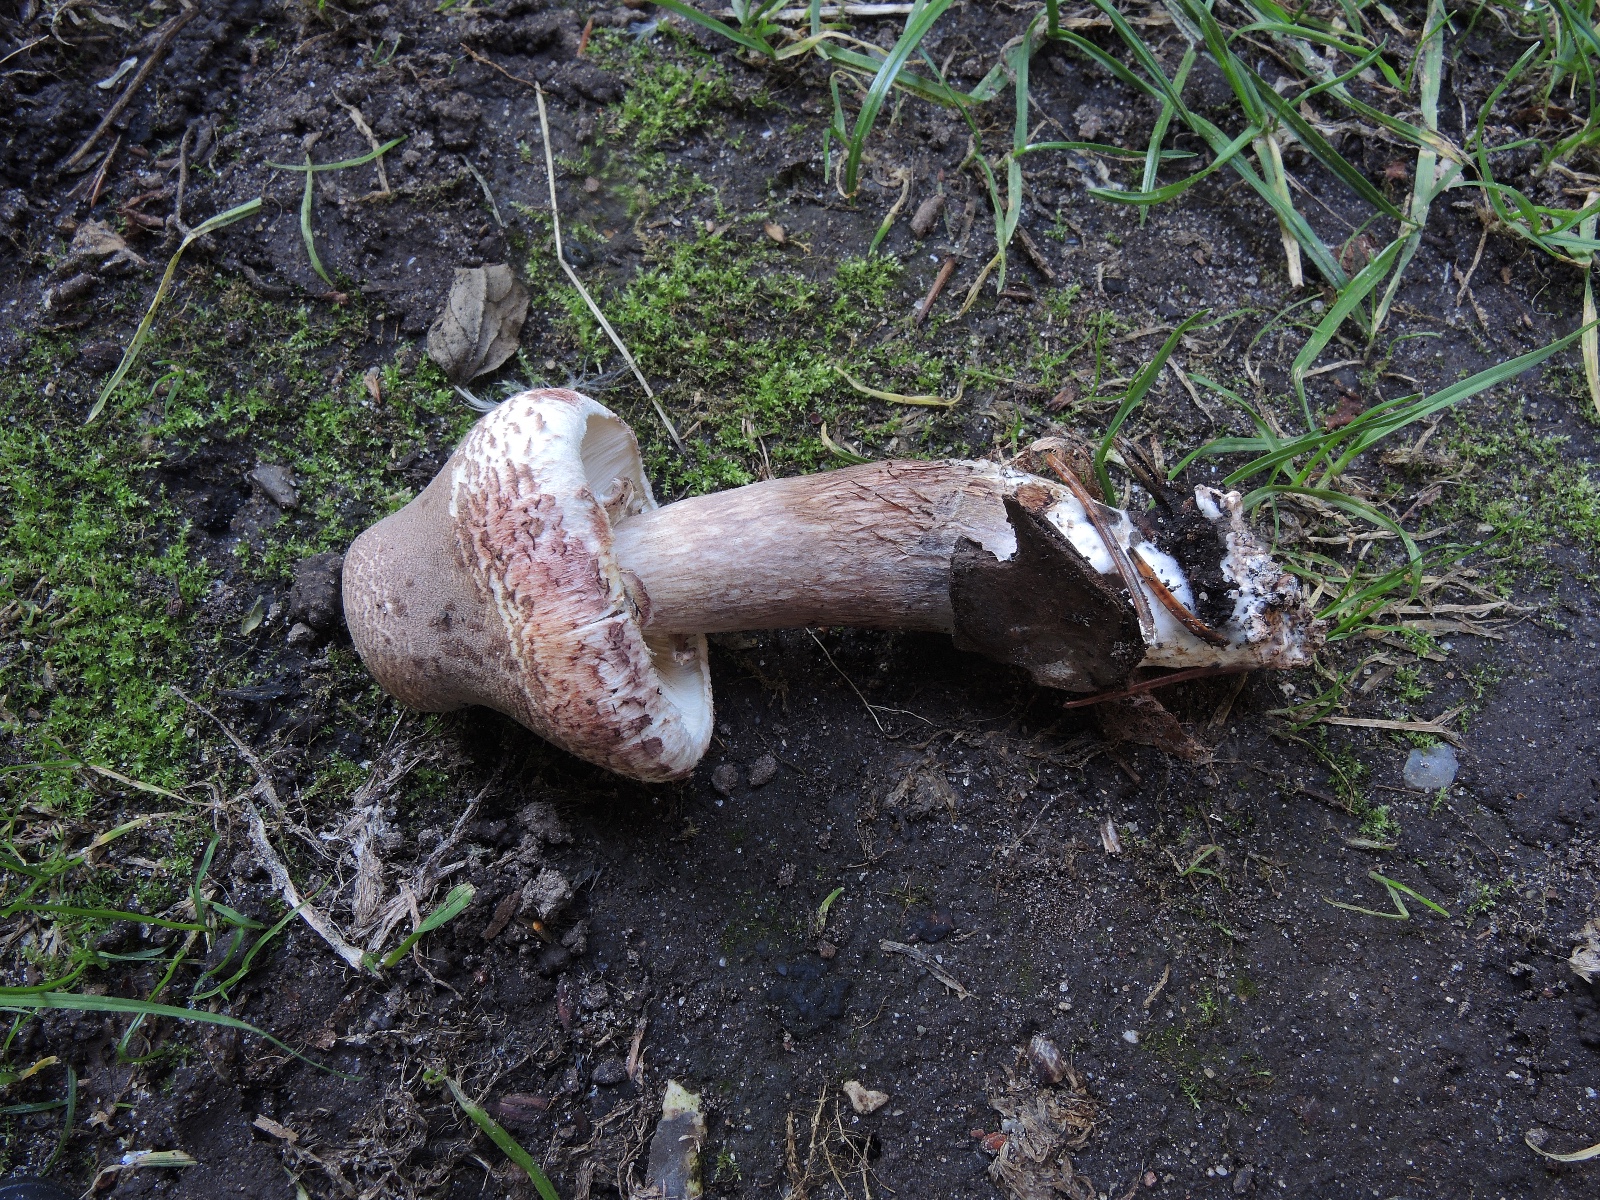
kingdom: Fungi
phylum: Basidiomycota
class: Agaricomycetes
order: Agaricales
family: Agaricaceae
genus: Leucoagaricus
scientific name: Leucoagaricus americanus
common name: stor silkehat
